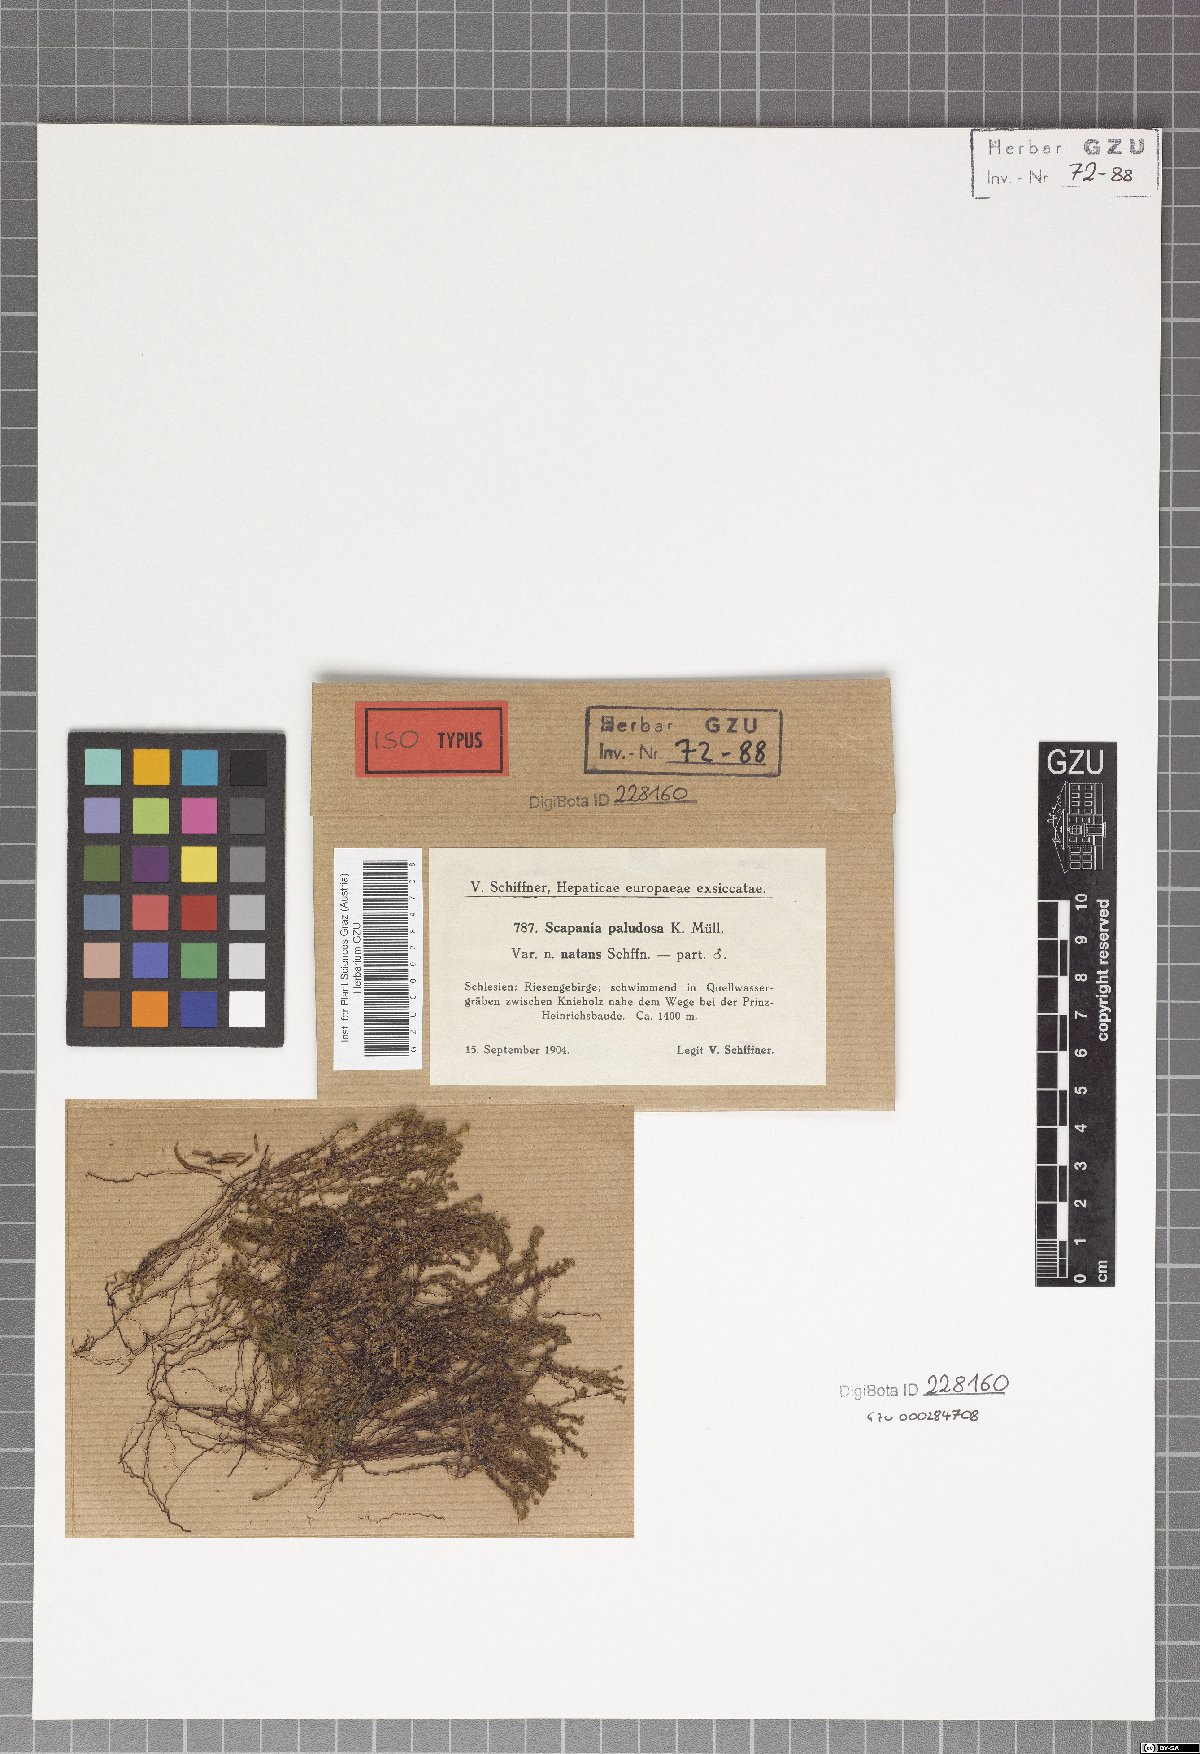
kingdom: Plantae
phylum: Marchantiophyta
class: Jungermanniopsida
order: Jungermanniales
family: Scapaniaceae
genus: Scapania
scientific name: Scapania undulata
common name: Water earwort
